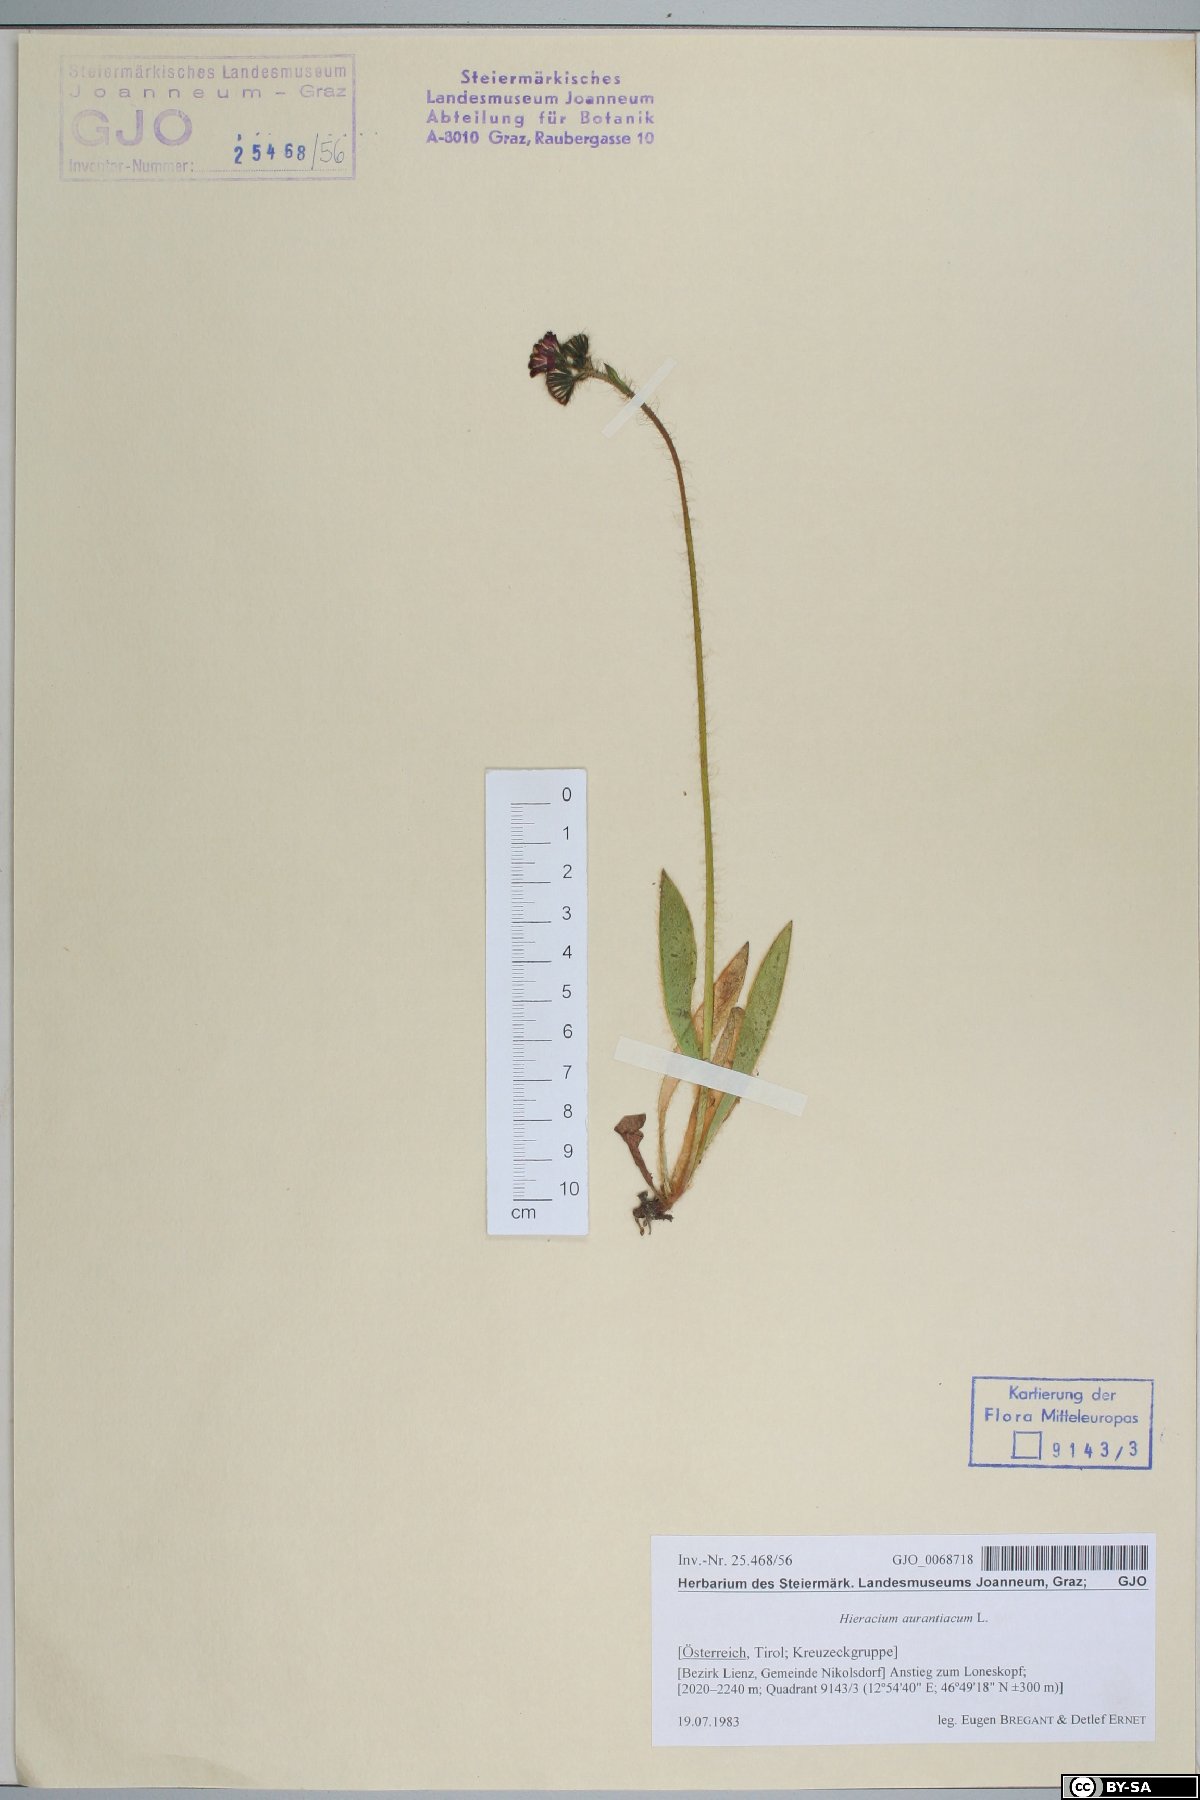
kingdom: Plantae
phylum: Tracheophyta
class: Magnoliopsida
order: Asterales
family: Asteraceae
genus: Pilosella
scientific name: Pilosella aurantiaca
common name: Fox-and-cubs
